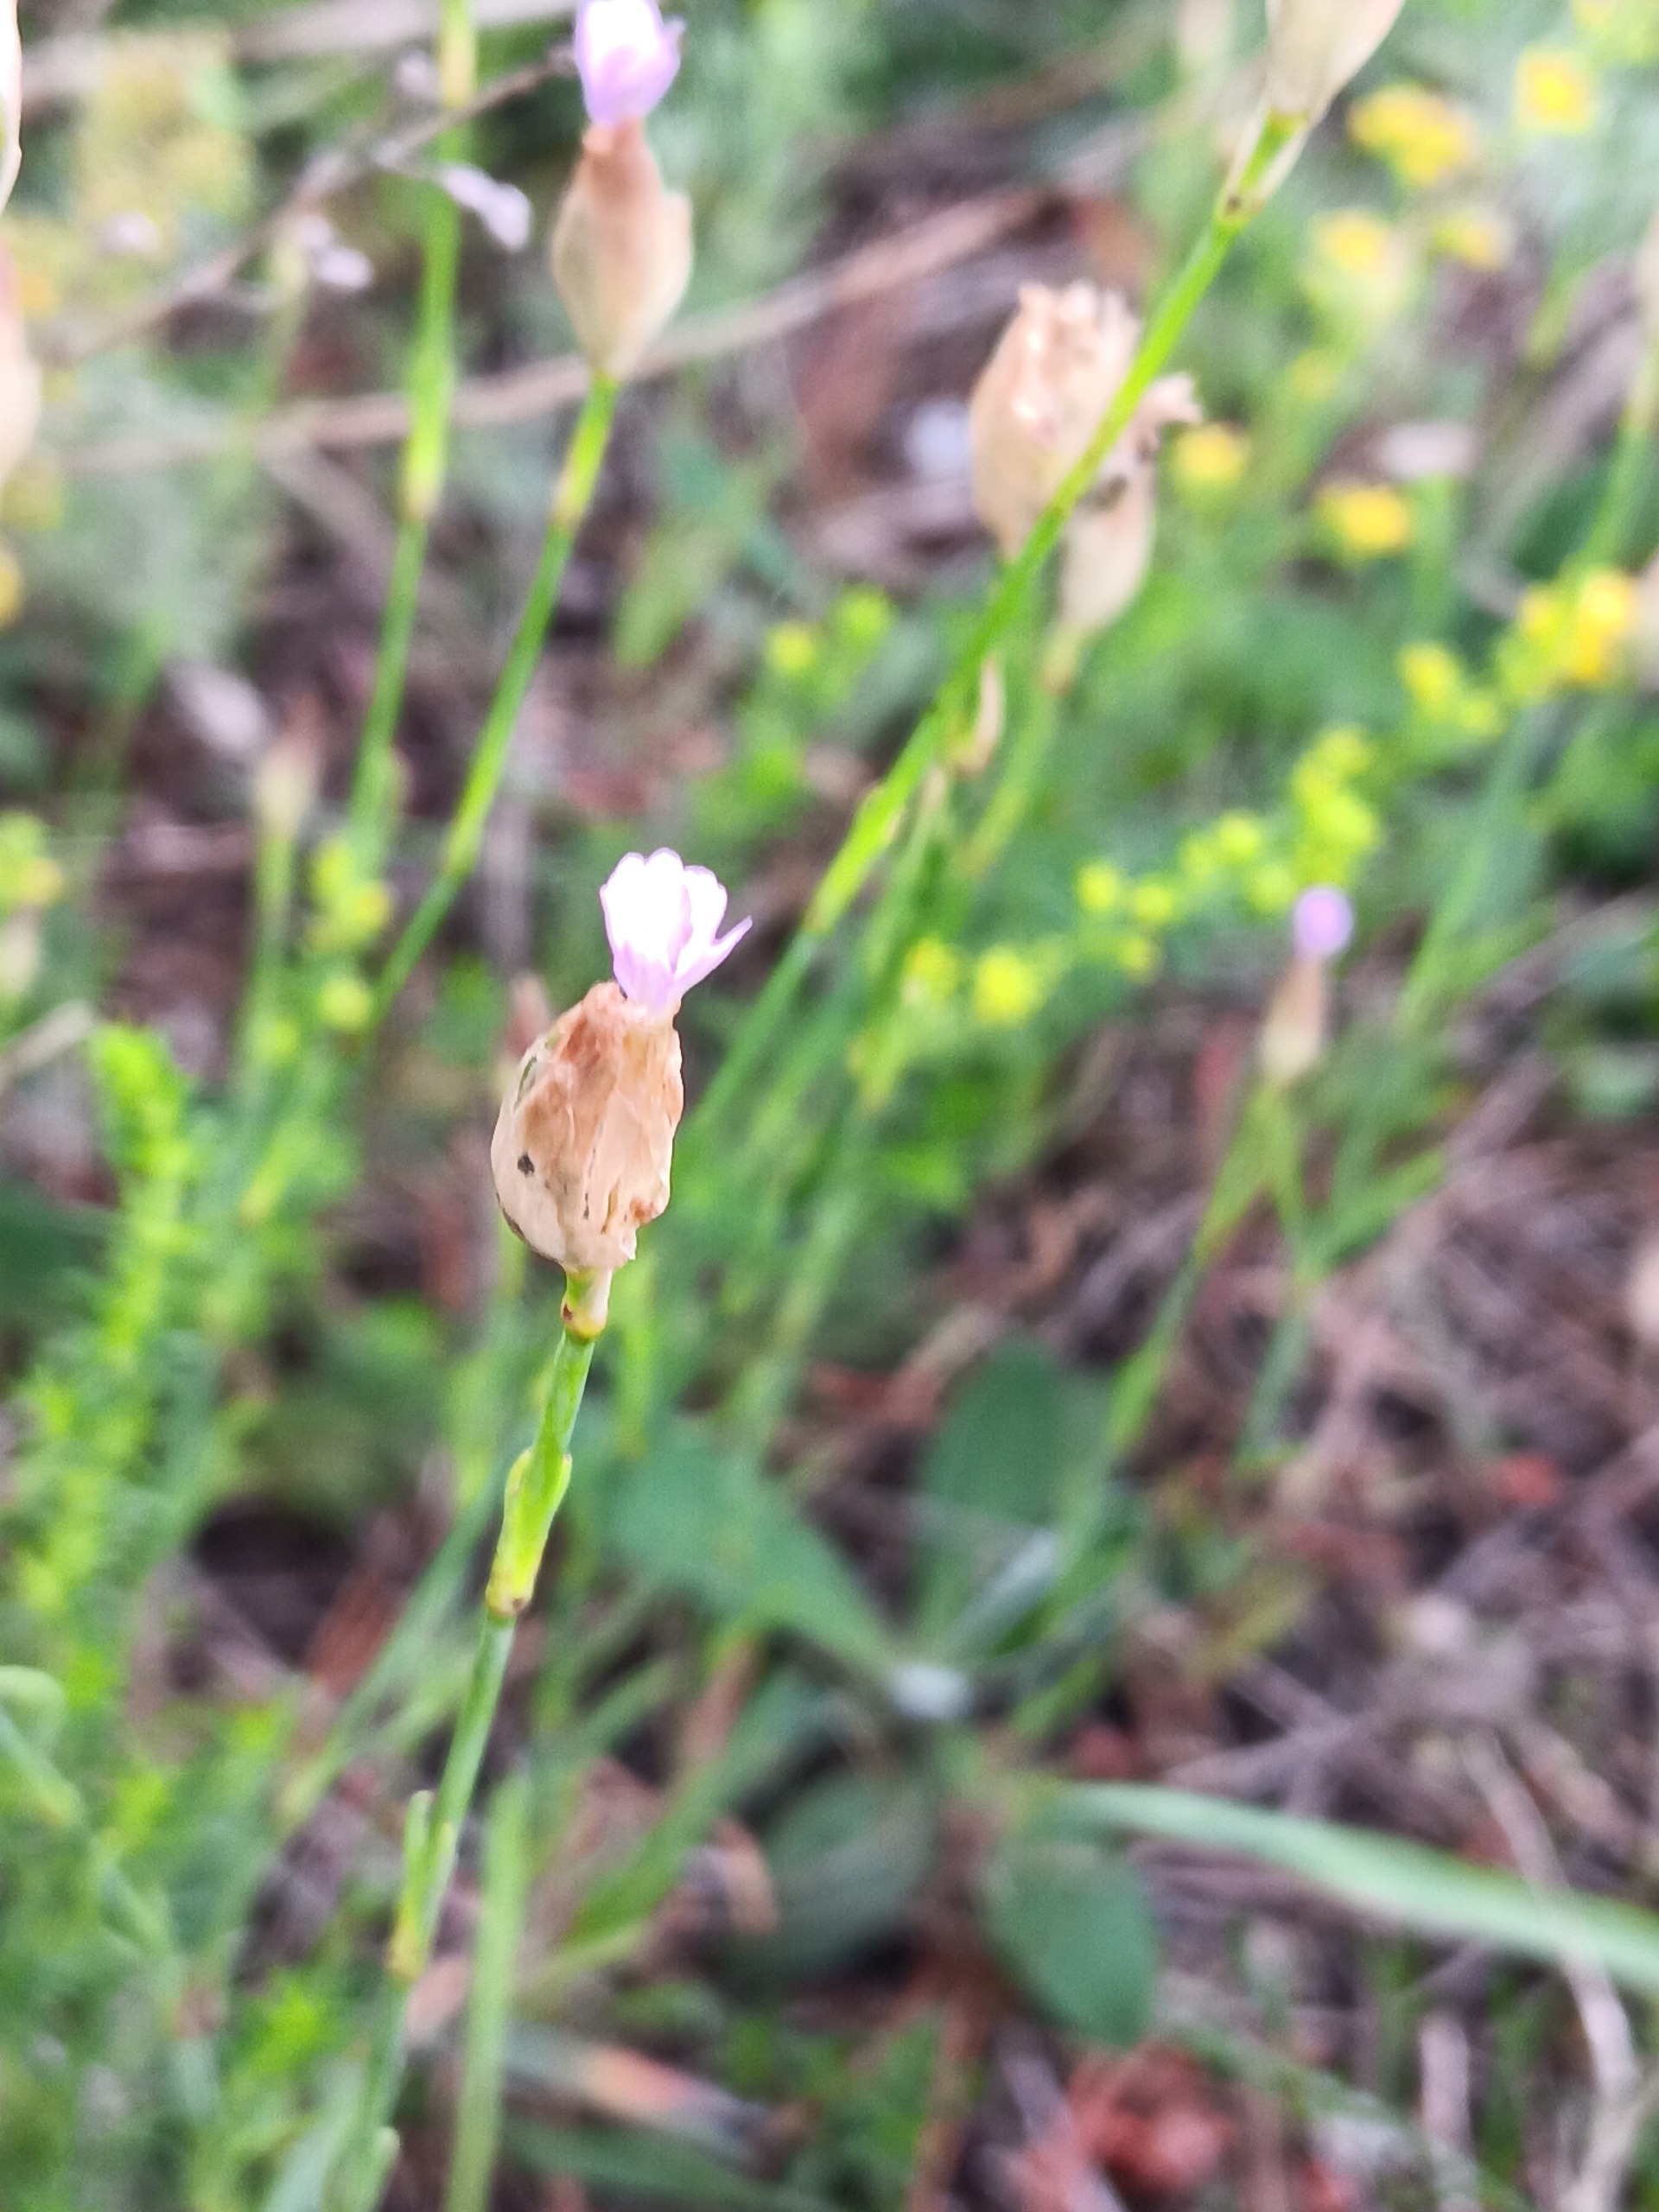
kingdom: Plantae
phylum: Tracheophyta
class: Magnoliopsida
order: Caryophyllales
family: Caryophyllaceae
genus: Petrorhagia
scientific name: Petrorhagia prolifera
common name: Knopnellike
